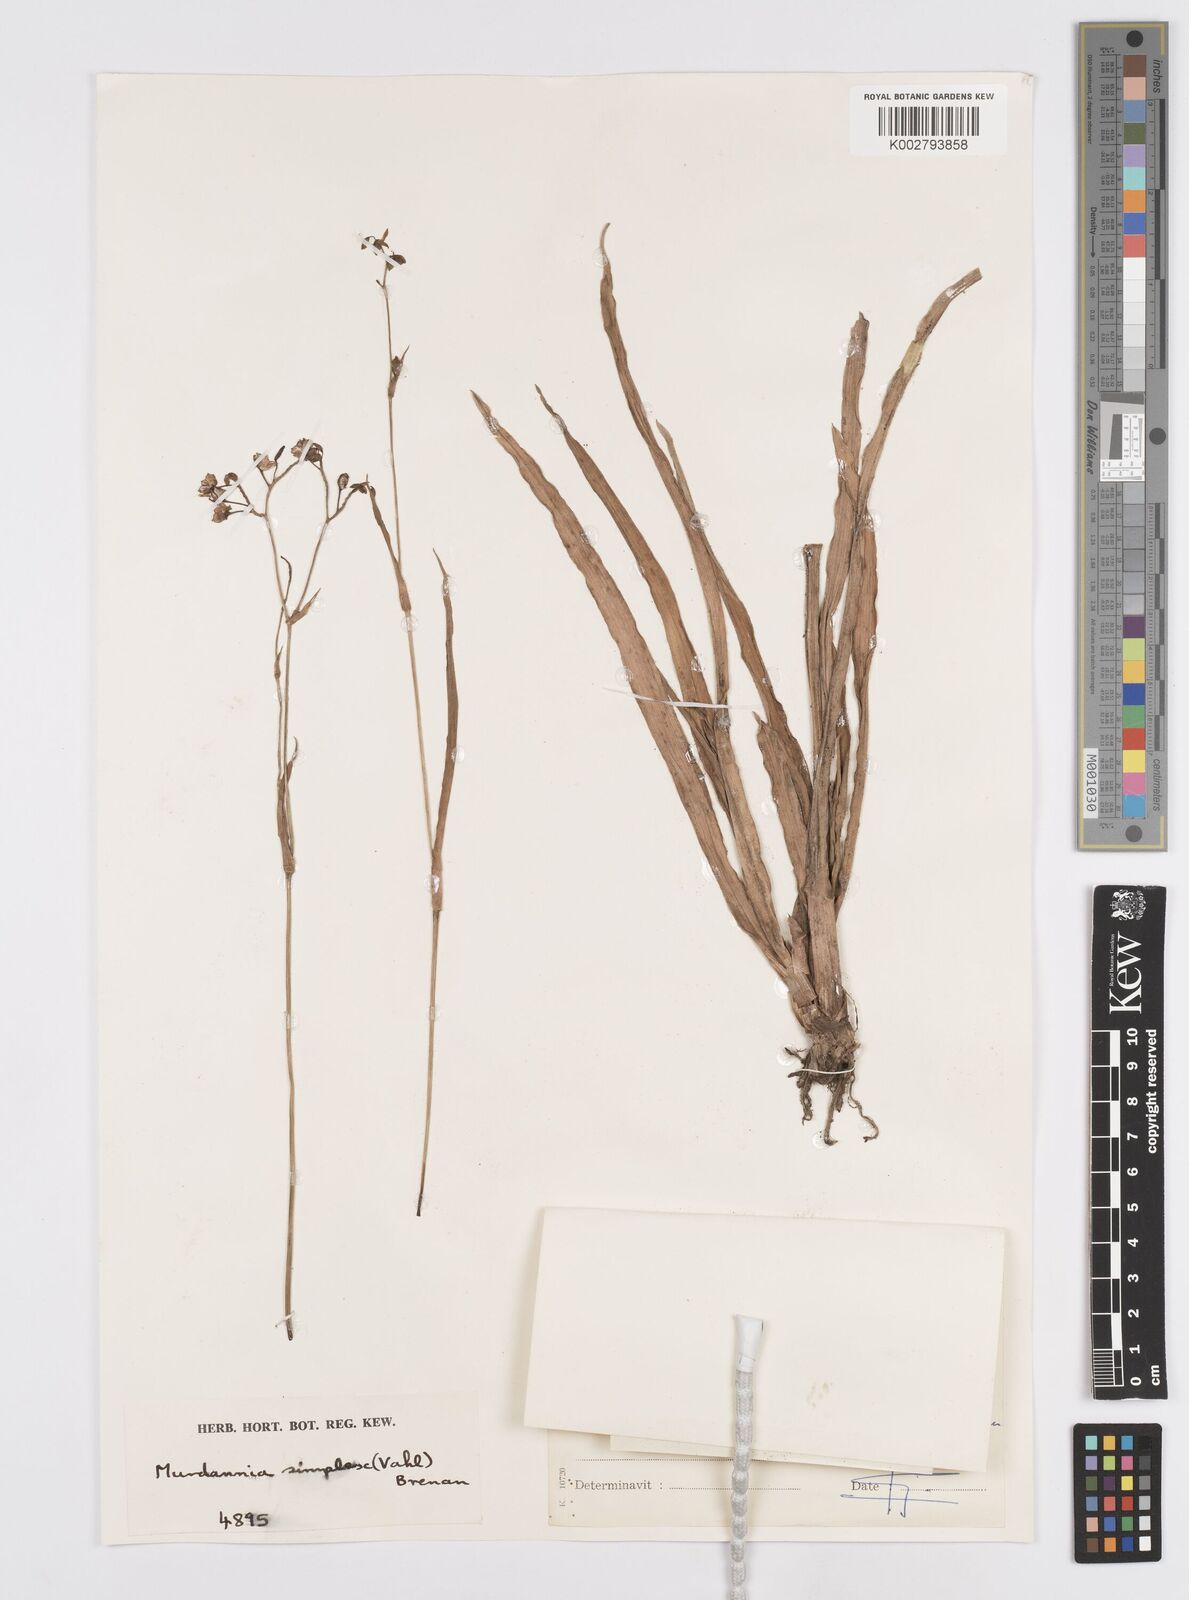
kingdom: Plantae
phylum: Tracheophyta
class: Liliopsida
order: Commelinales
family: Commelinaceae
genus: Murdannia
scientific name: Murdannia simplex
